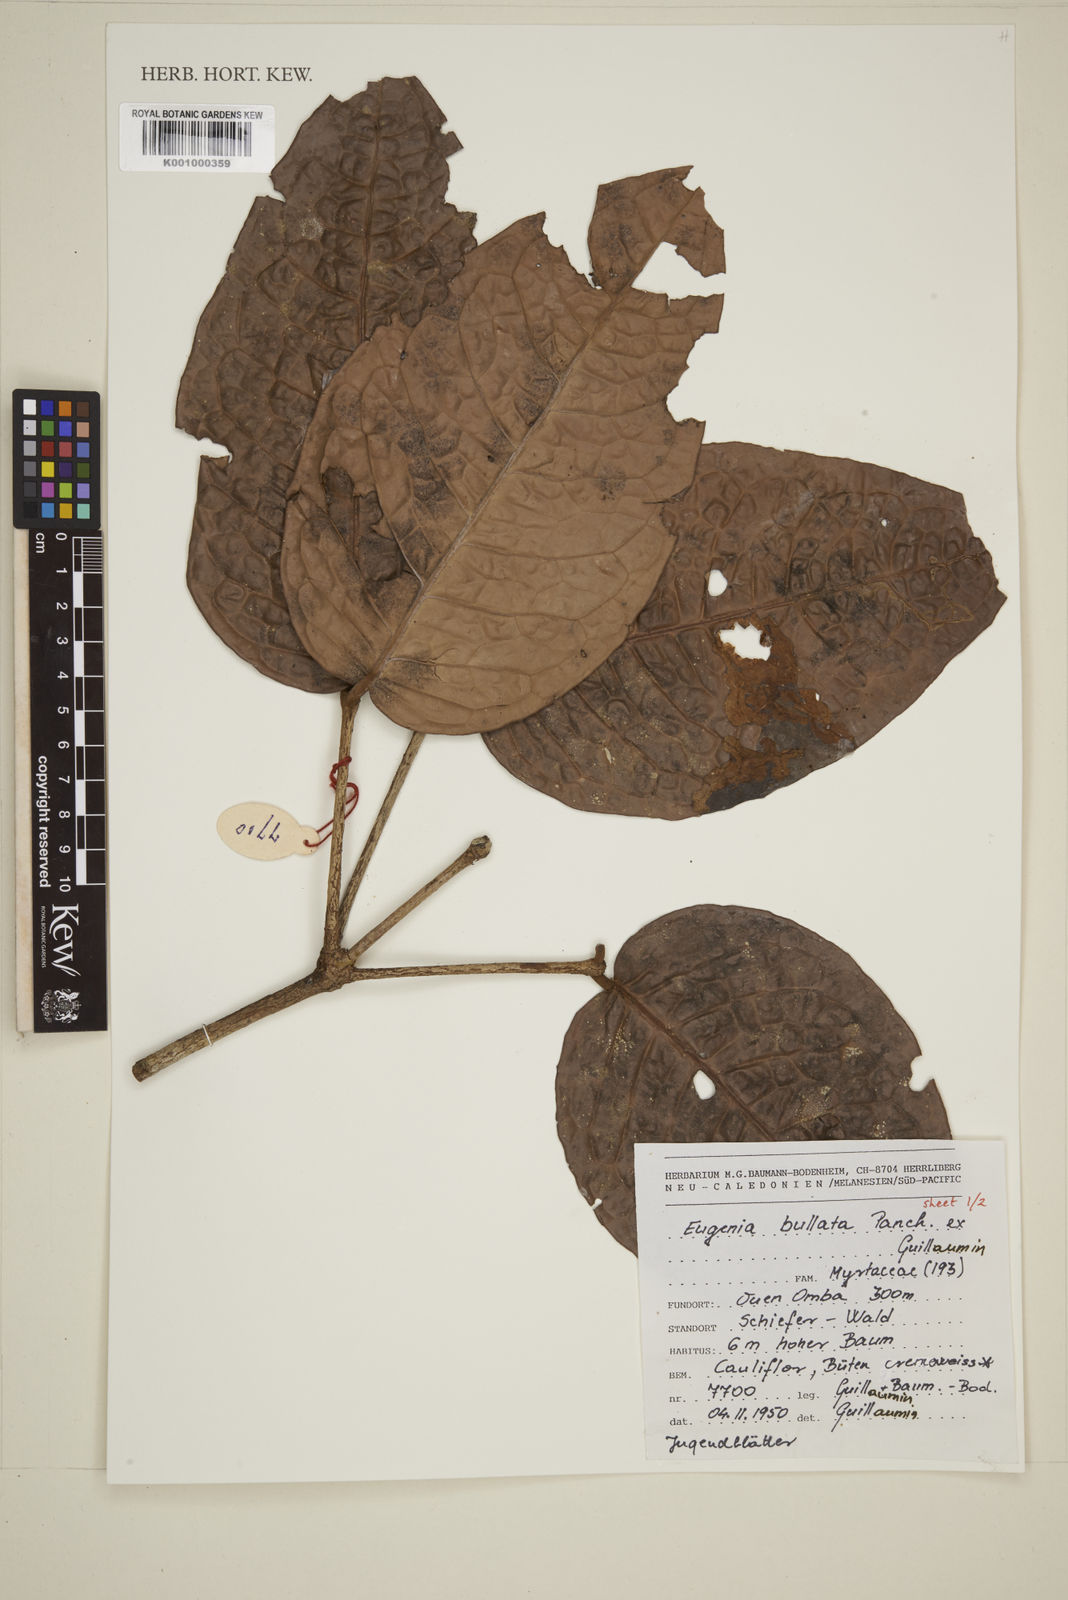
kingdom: Plantae
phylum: Tracheophyta
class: Magnoliopsida
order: Myrtales
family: Myrtaceae
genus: Eugenia
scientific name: Eugenia
